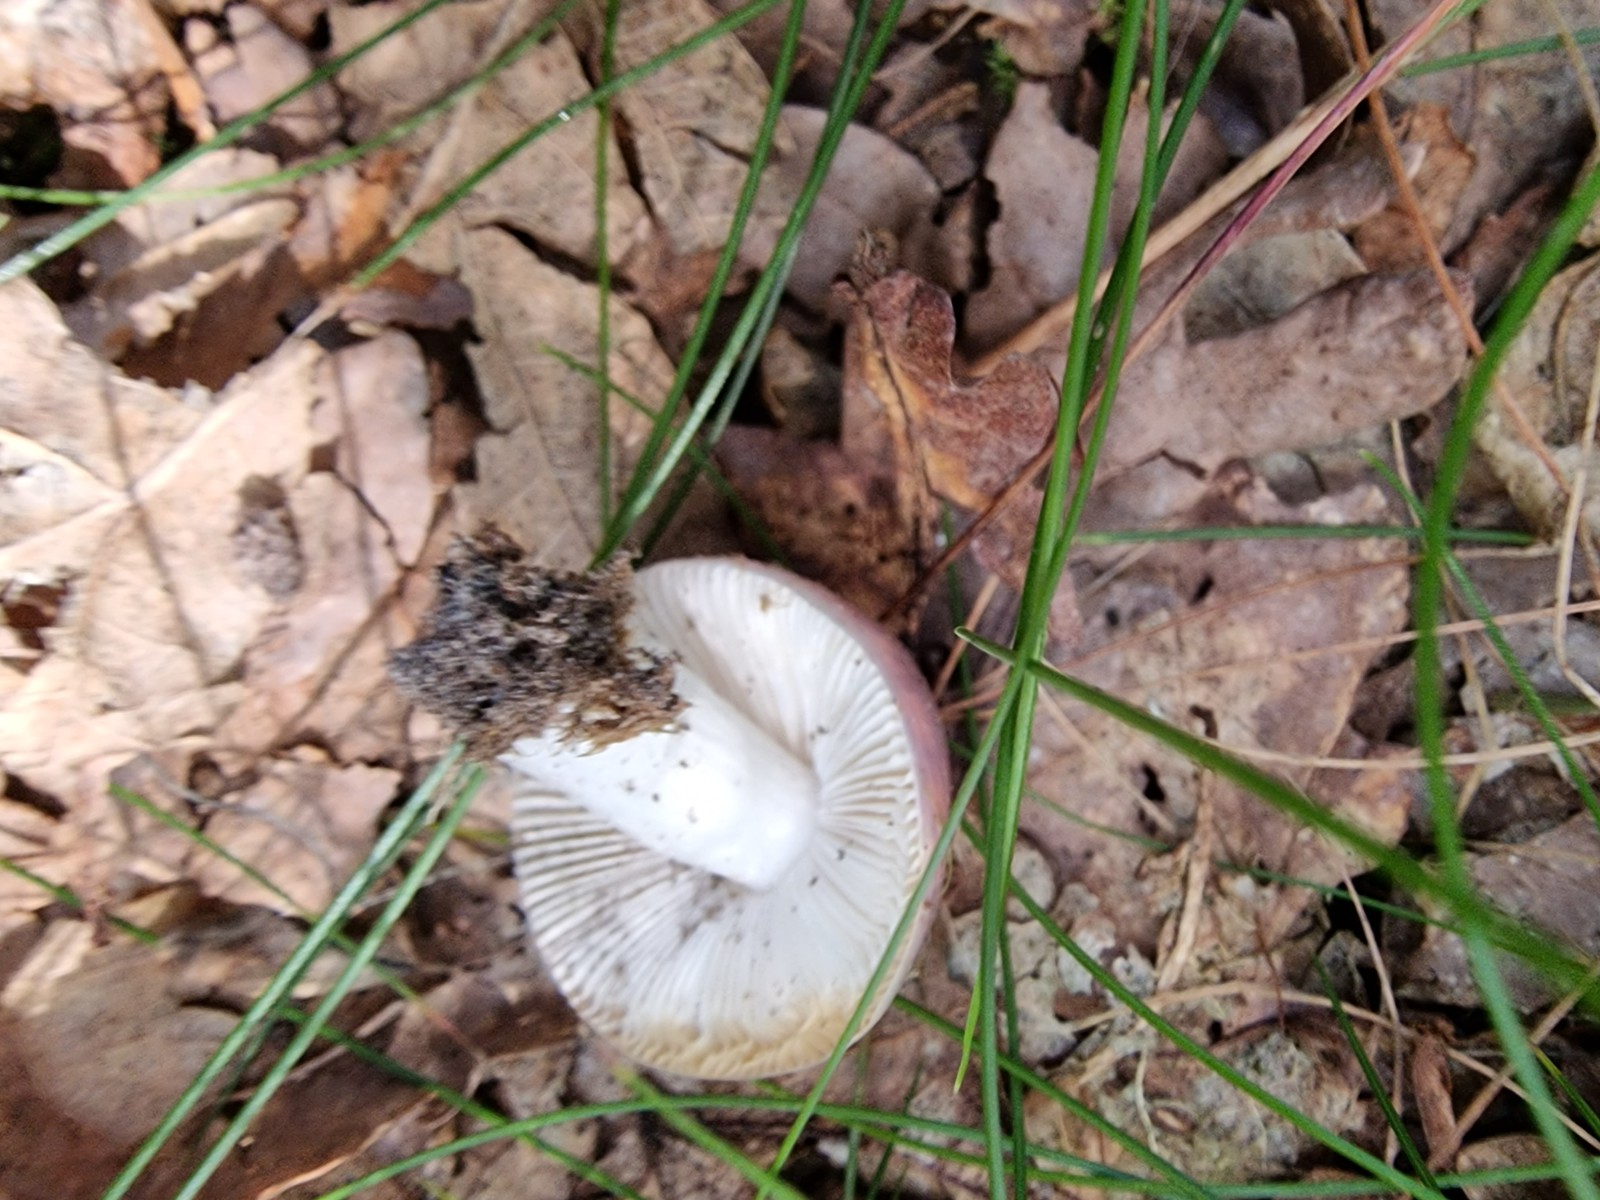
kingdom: Fungi
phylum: Basidiomycota
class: Agaricomycetes
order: Russulales
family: Russulaceae
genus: Russula
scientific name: Russula
